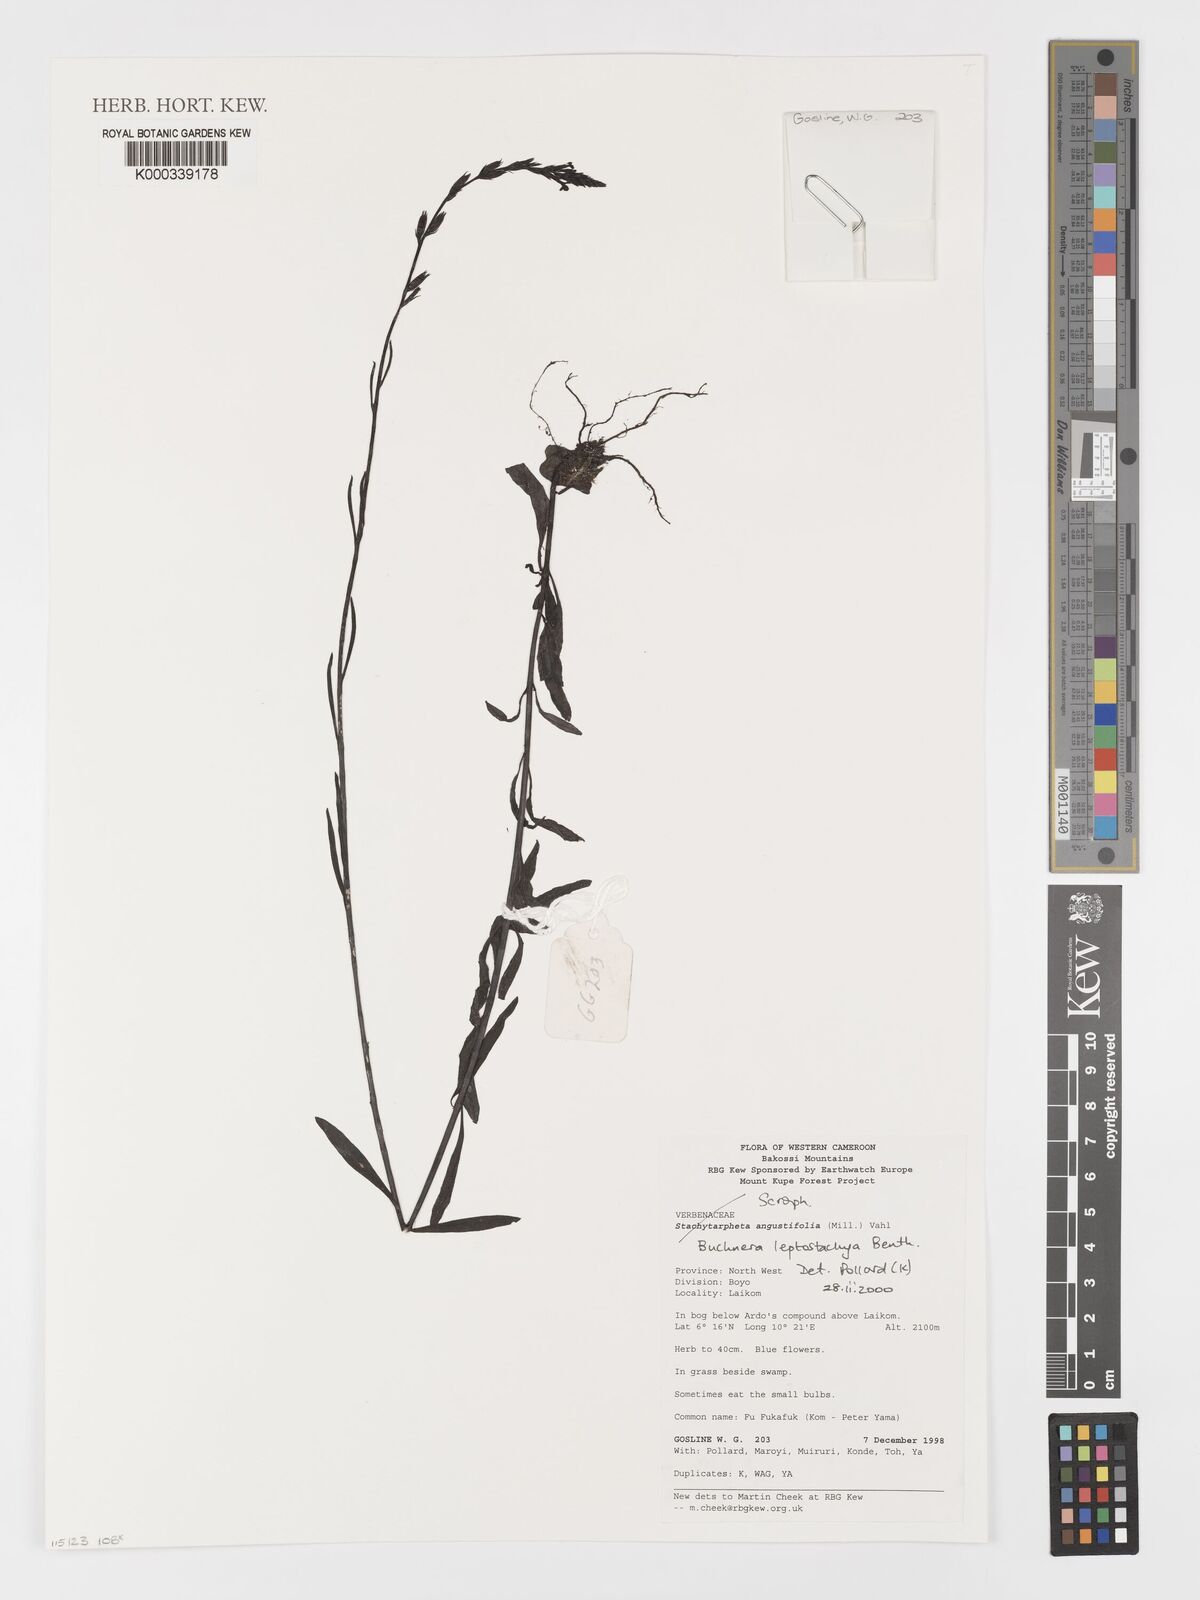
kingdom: Plantae
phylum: Tracheophyta
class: Magnoliopsida
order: Lamiales
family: Orobanchaceae
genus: Buchnera
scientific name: Buchnera leptostachya
